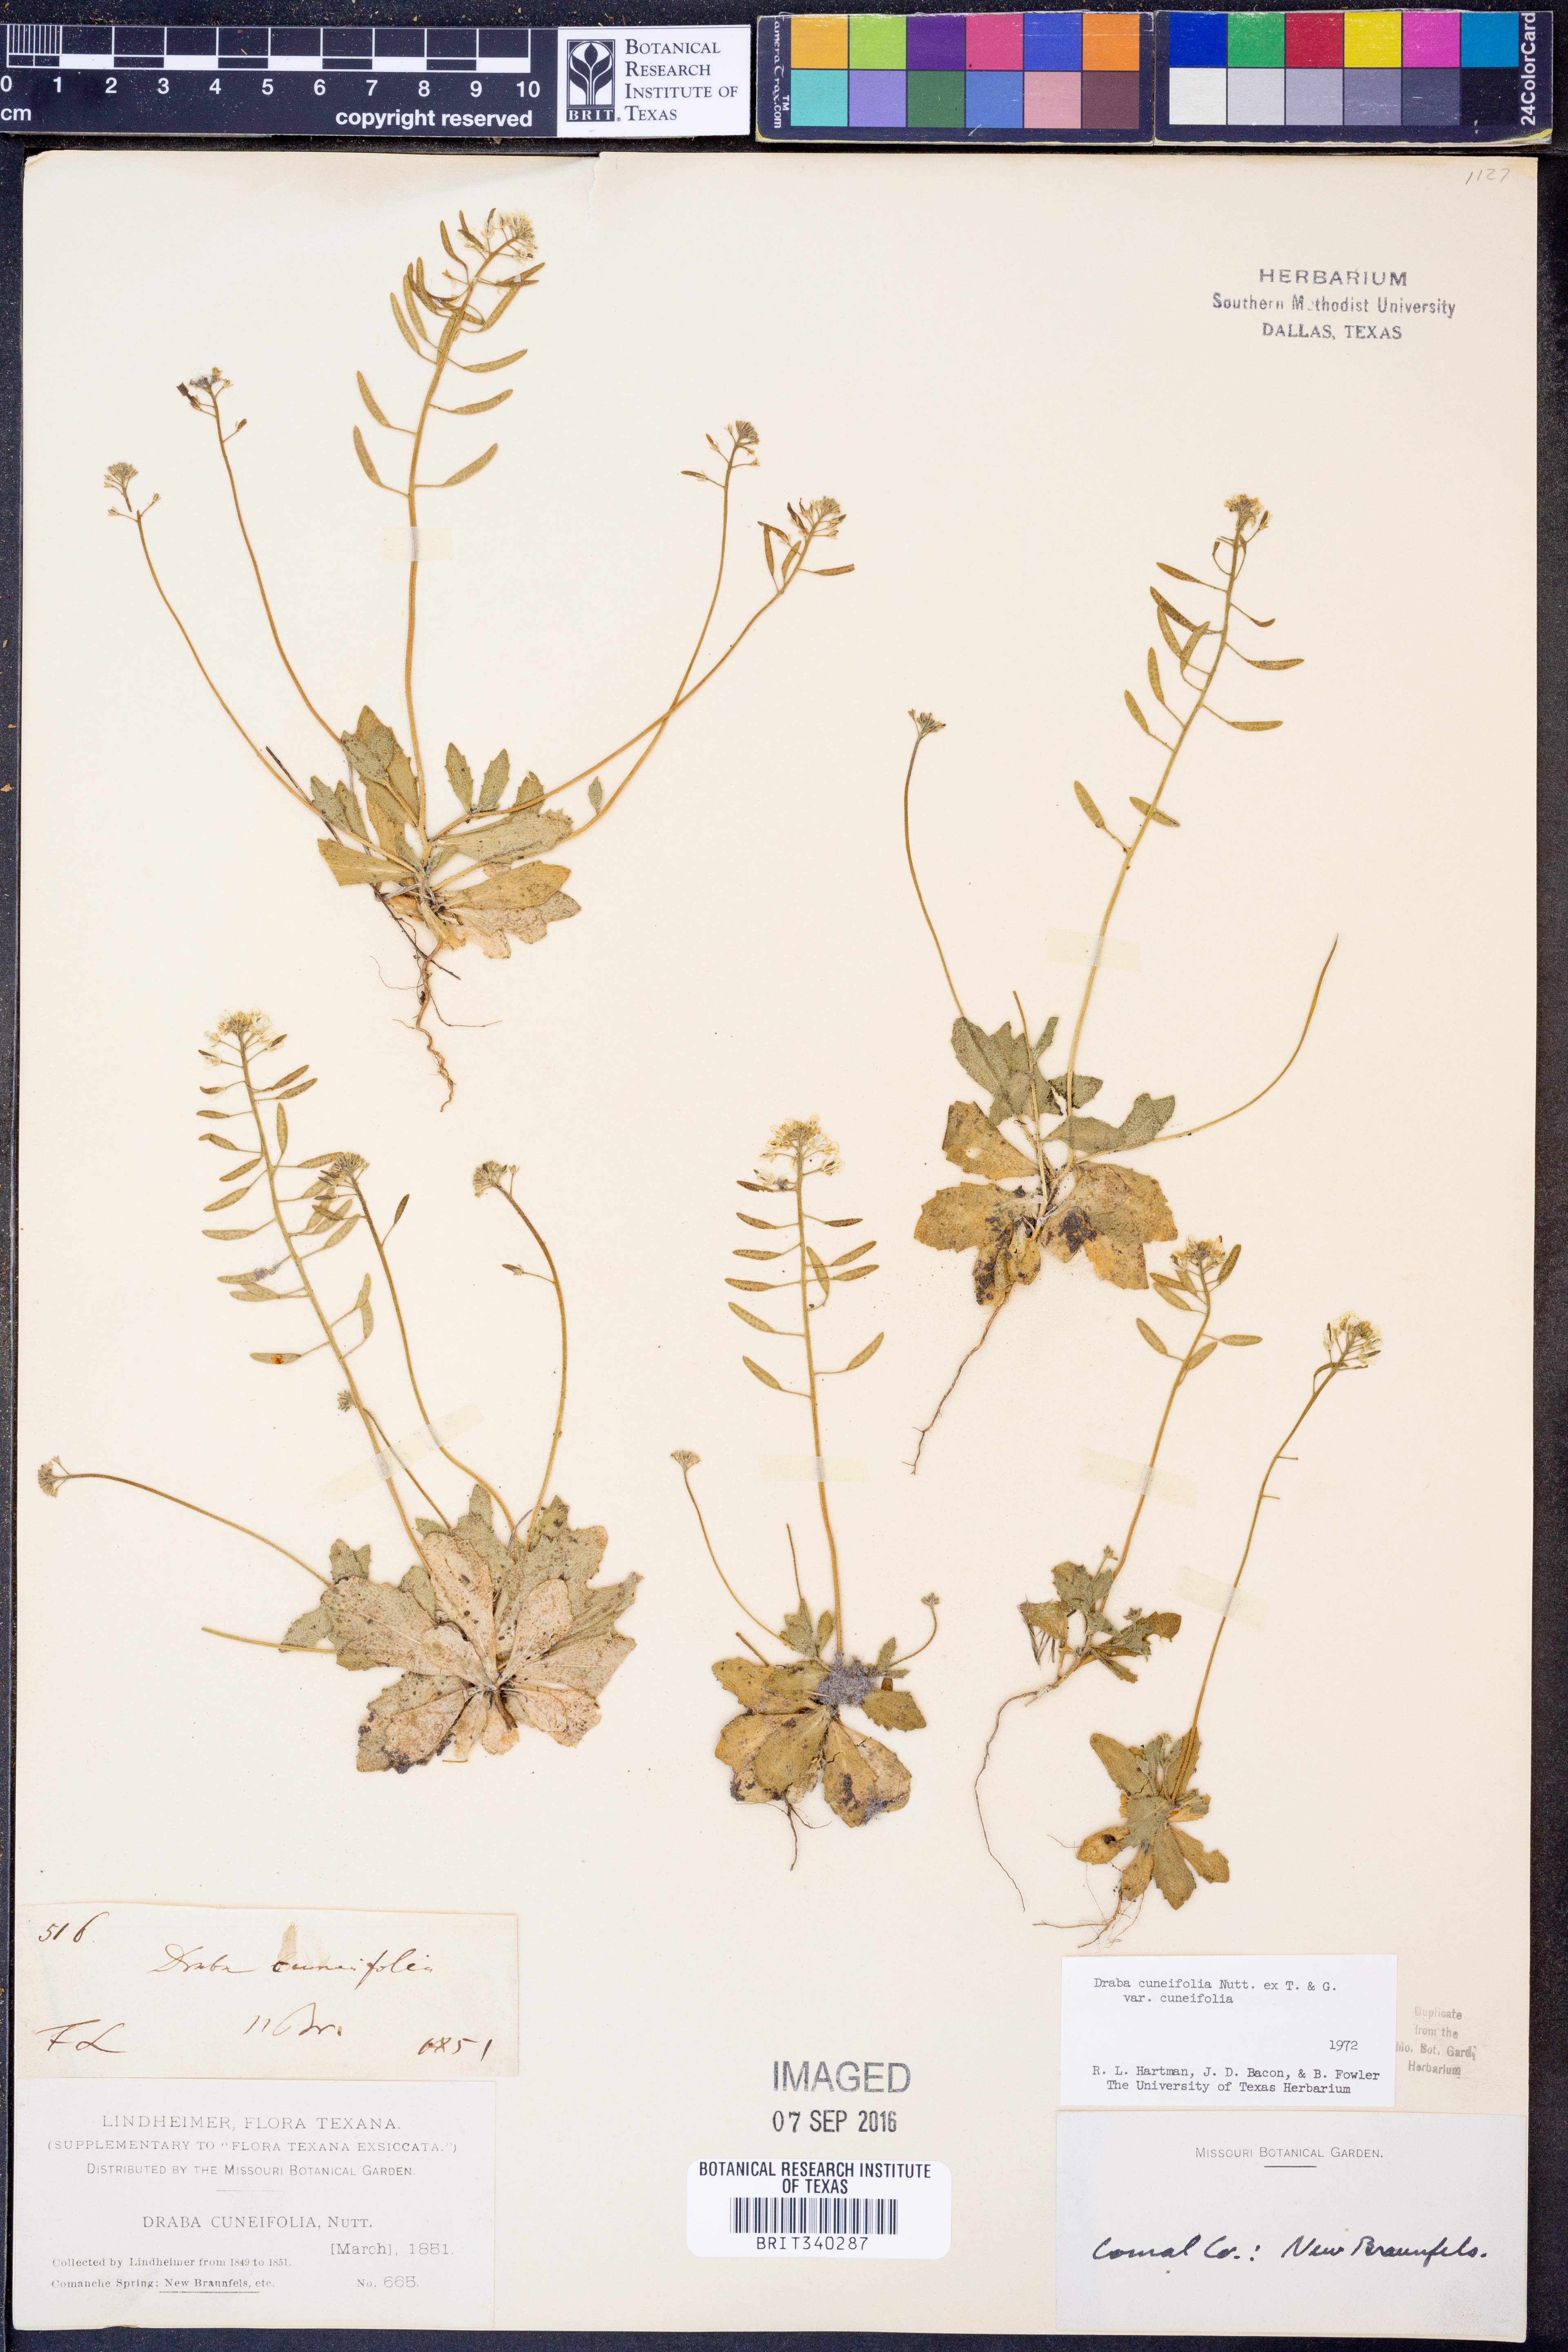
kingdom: Plantae
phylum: Tracheophyta
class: Magnoliopsida
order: Brassicales
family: Brassicaceae
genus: Tomostima
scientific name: Tomostima cuneifolia
